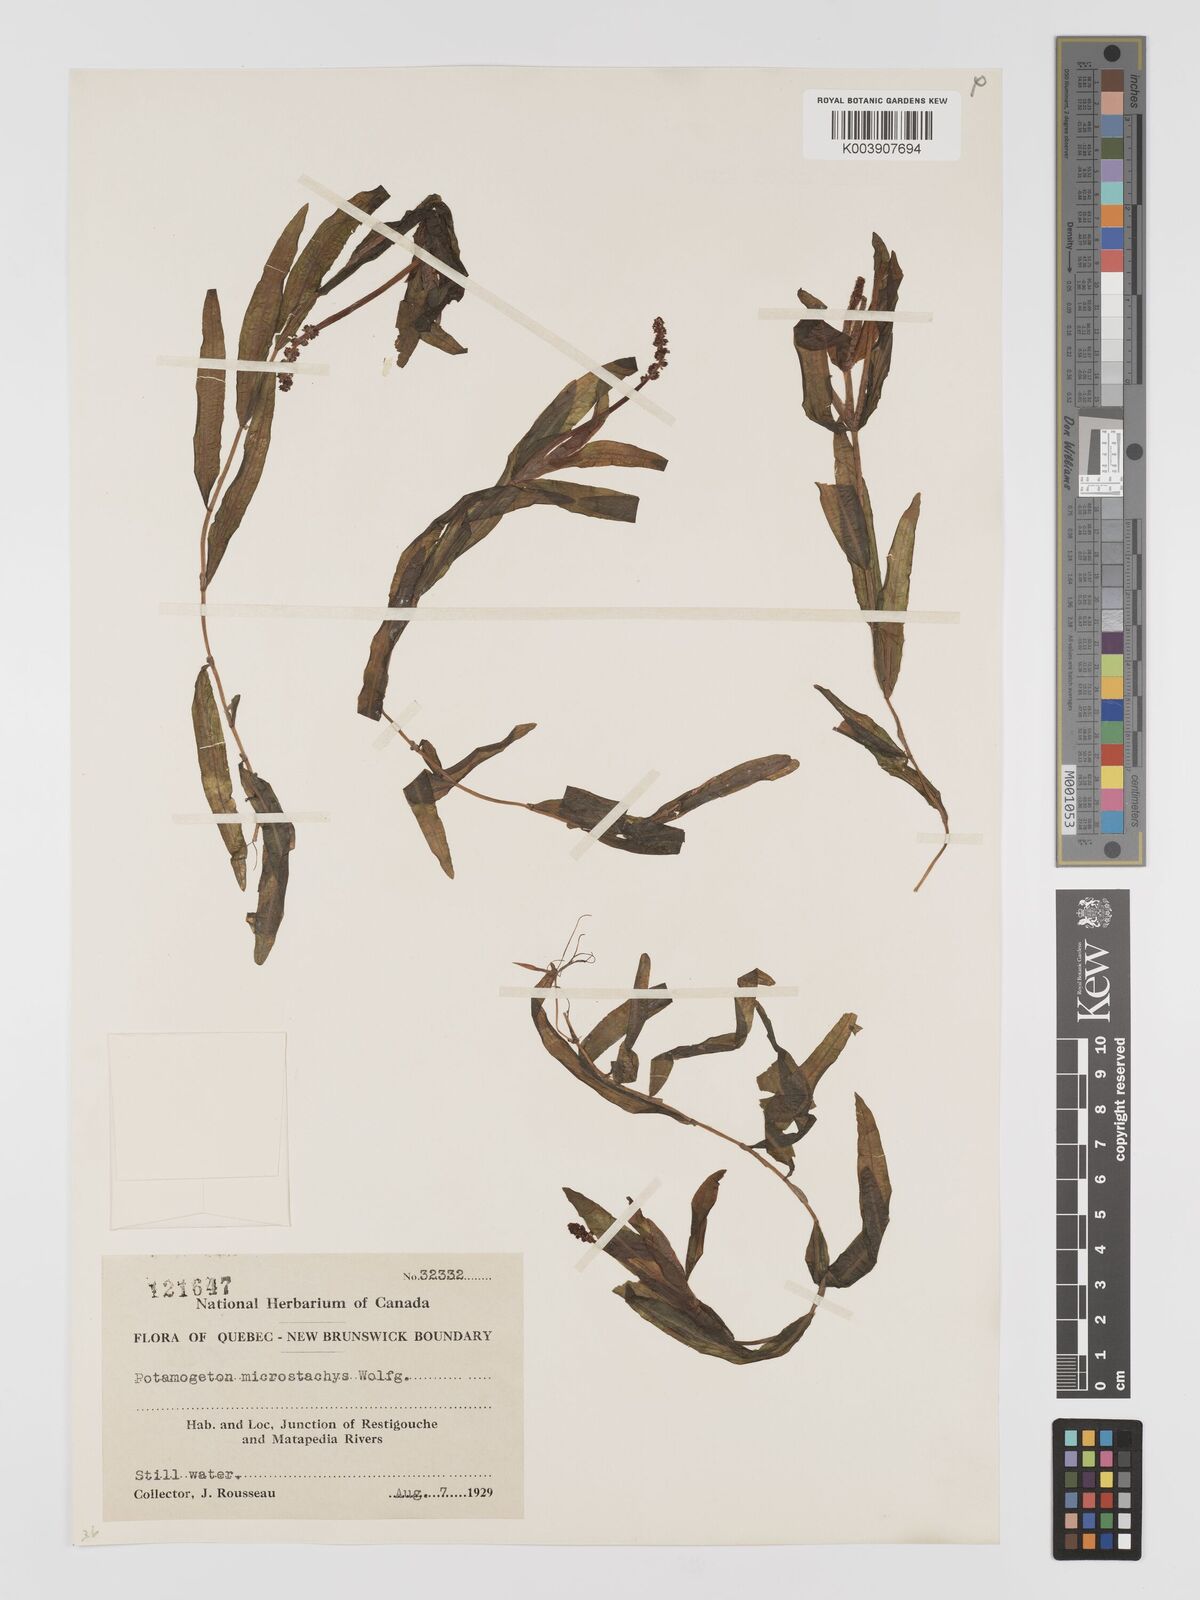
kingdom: Plantae
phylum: Tracheophyta
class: Liliopsida
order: Alismatales
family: Potamogetonaceae
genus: Potamogeton
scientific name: Potamogeton alpinus
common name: Red pondweed
